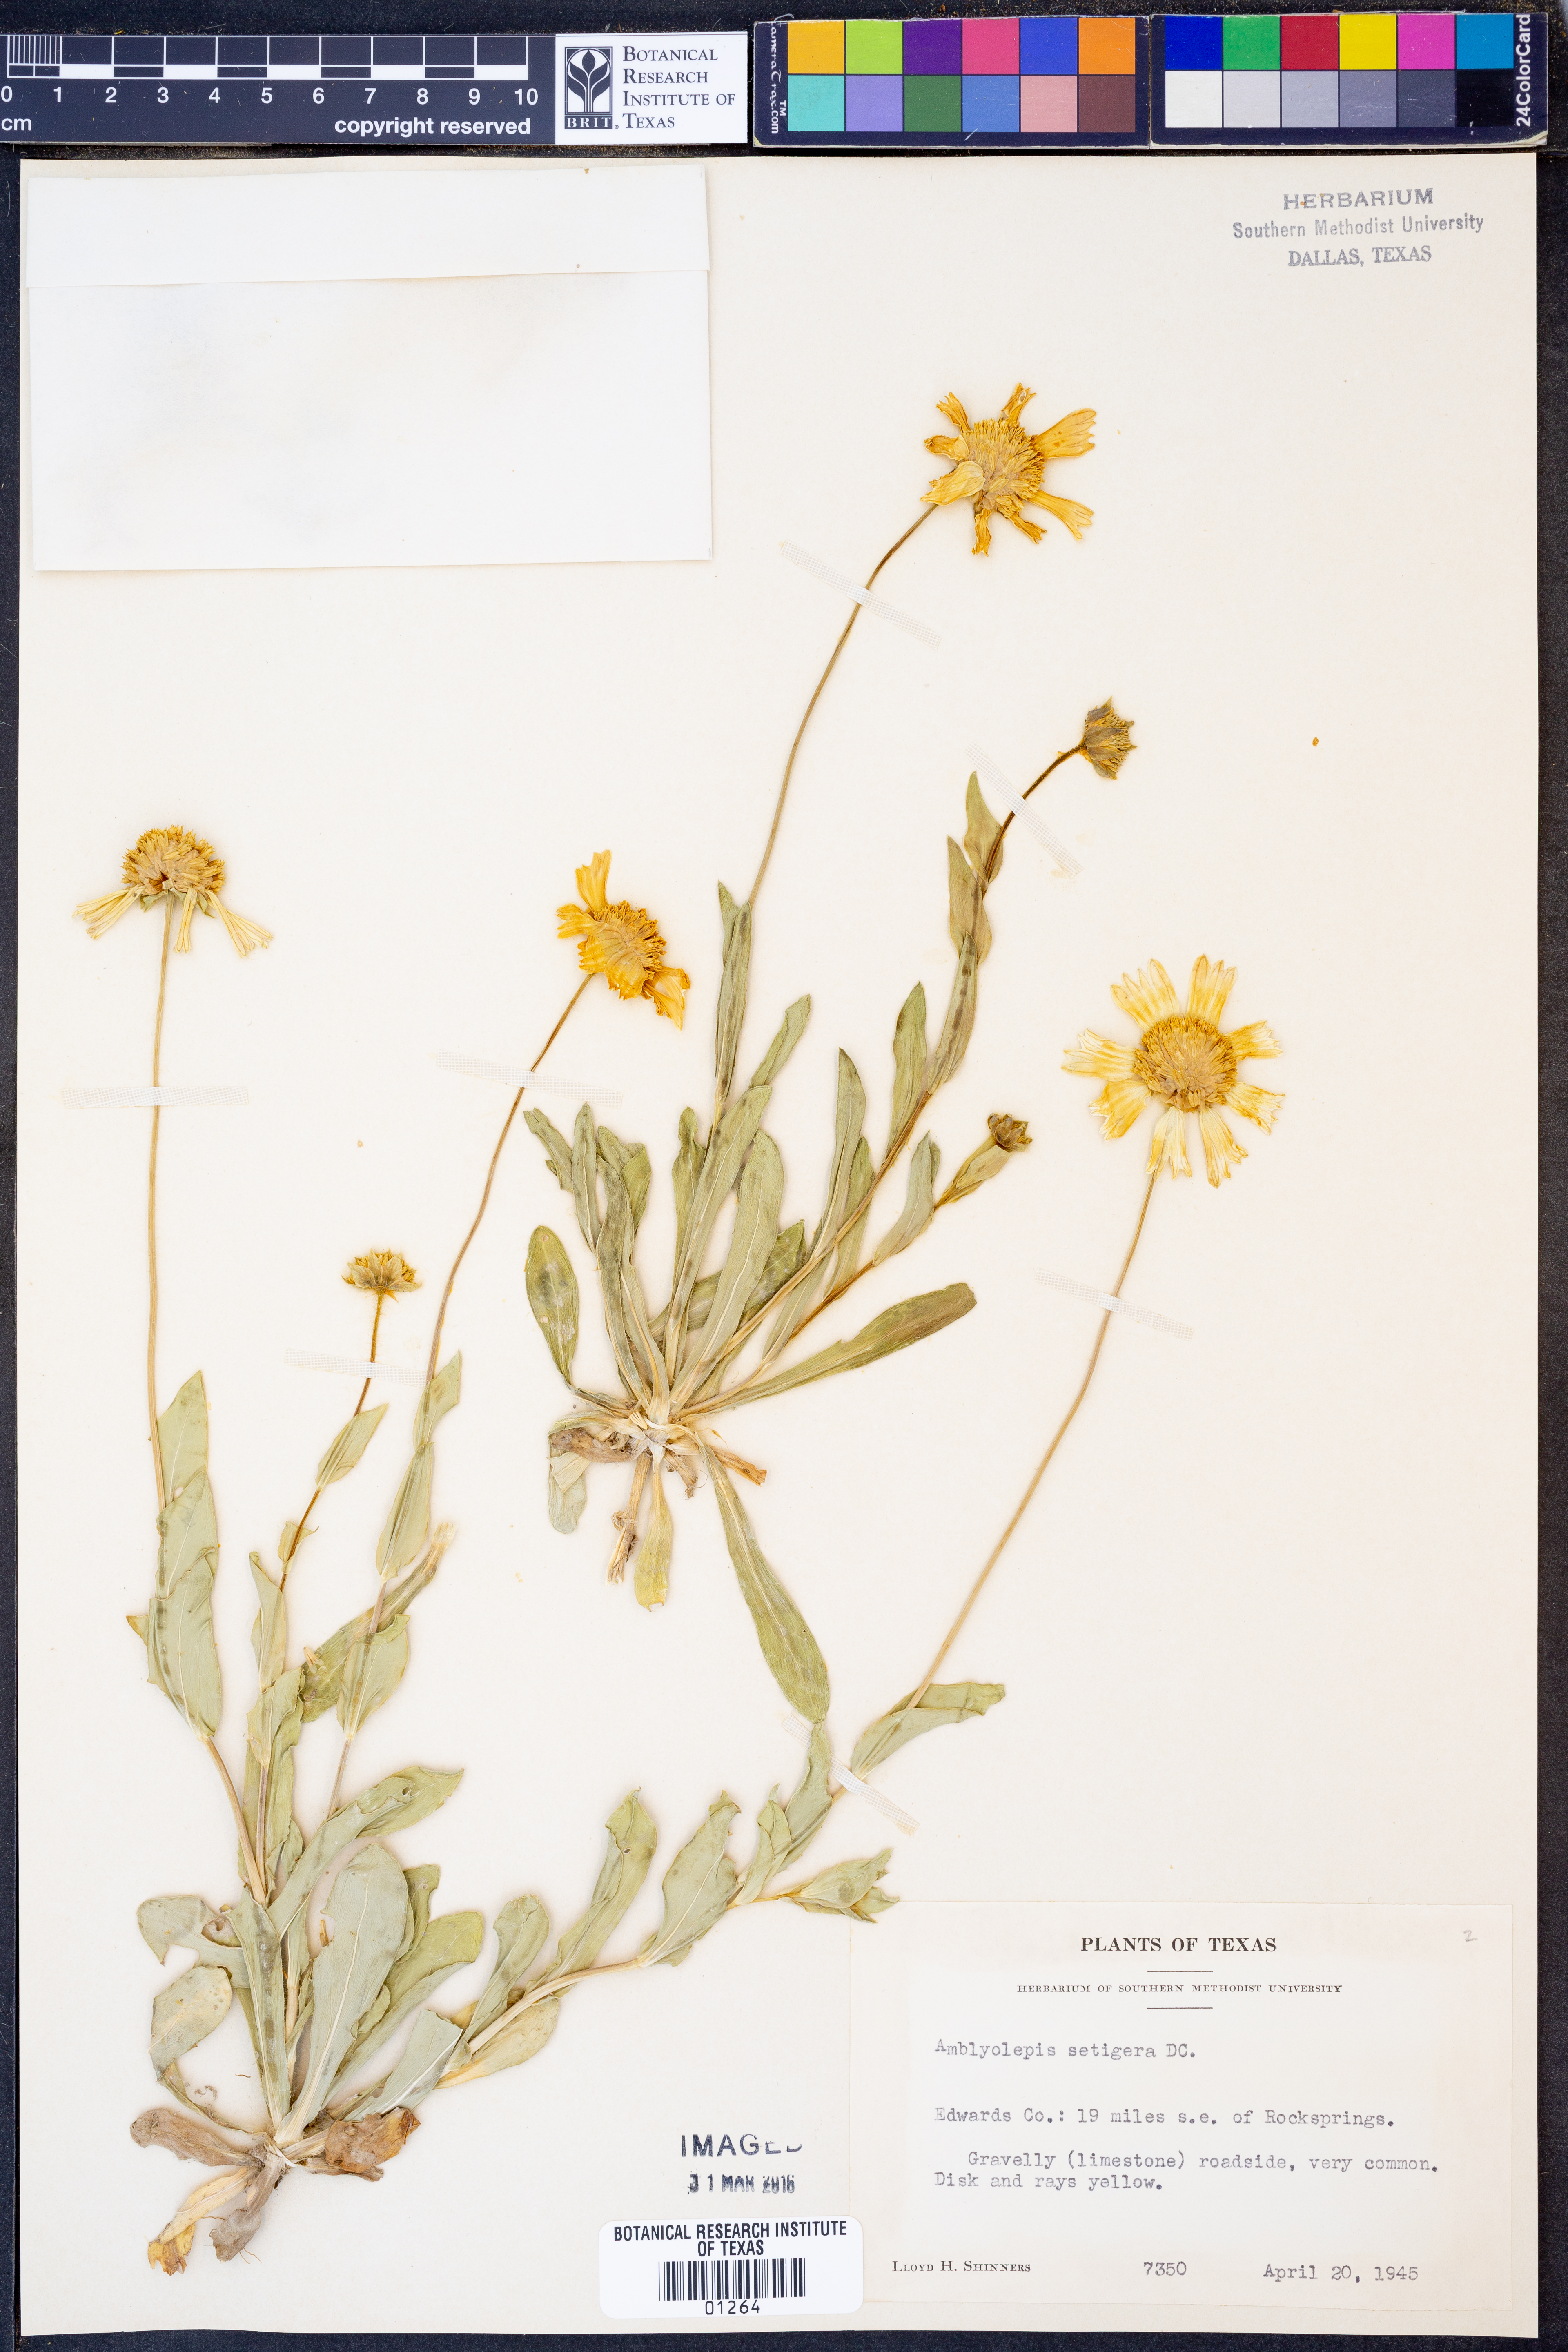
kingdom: Plantae
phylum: Tracheophyta
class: Magnoliopsida
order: Asterales
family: Asteraceae
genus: Amblyolepis
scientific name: Amblyolepis setigera
